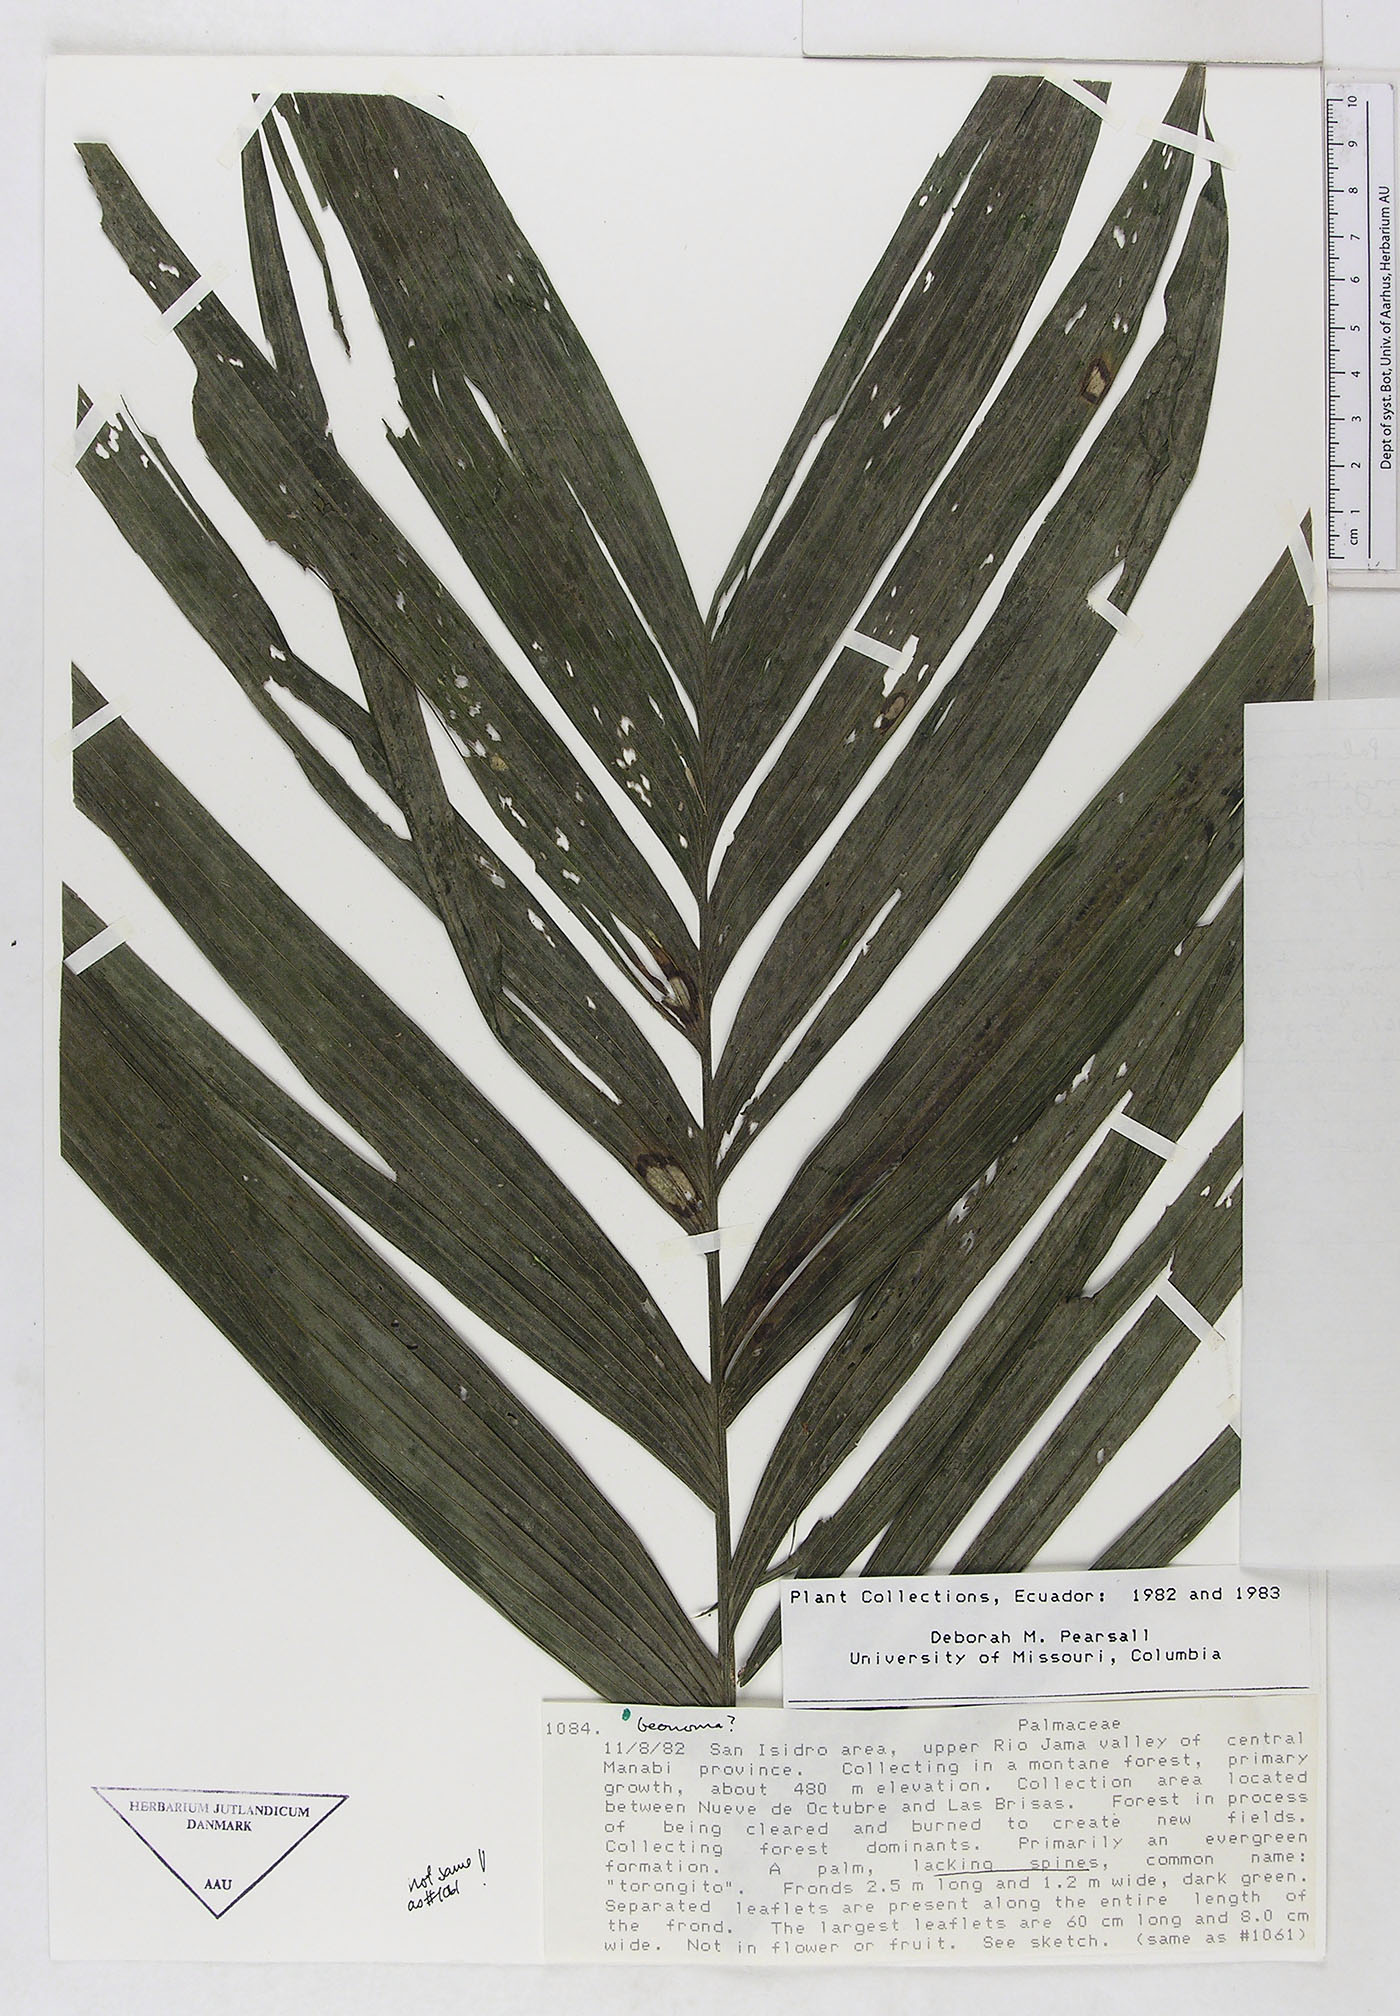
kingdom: Plantae
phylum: Tracheophyta
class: Liliopsida
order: Arecales
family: Arecaceae
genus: Geonoma
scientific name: Geonoma
